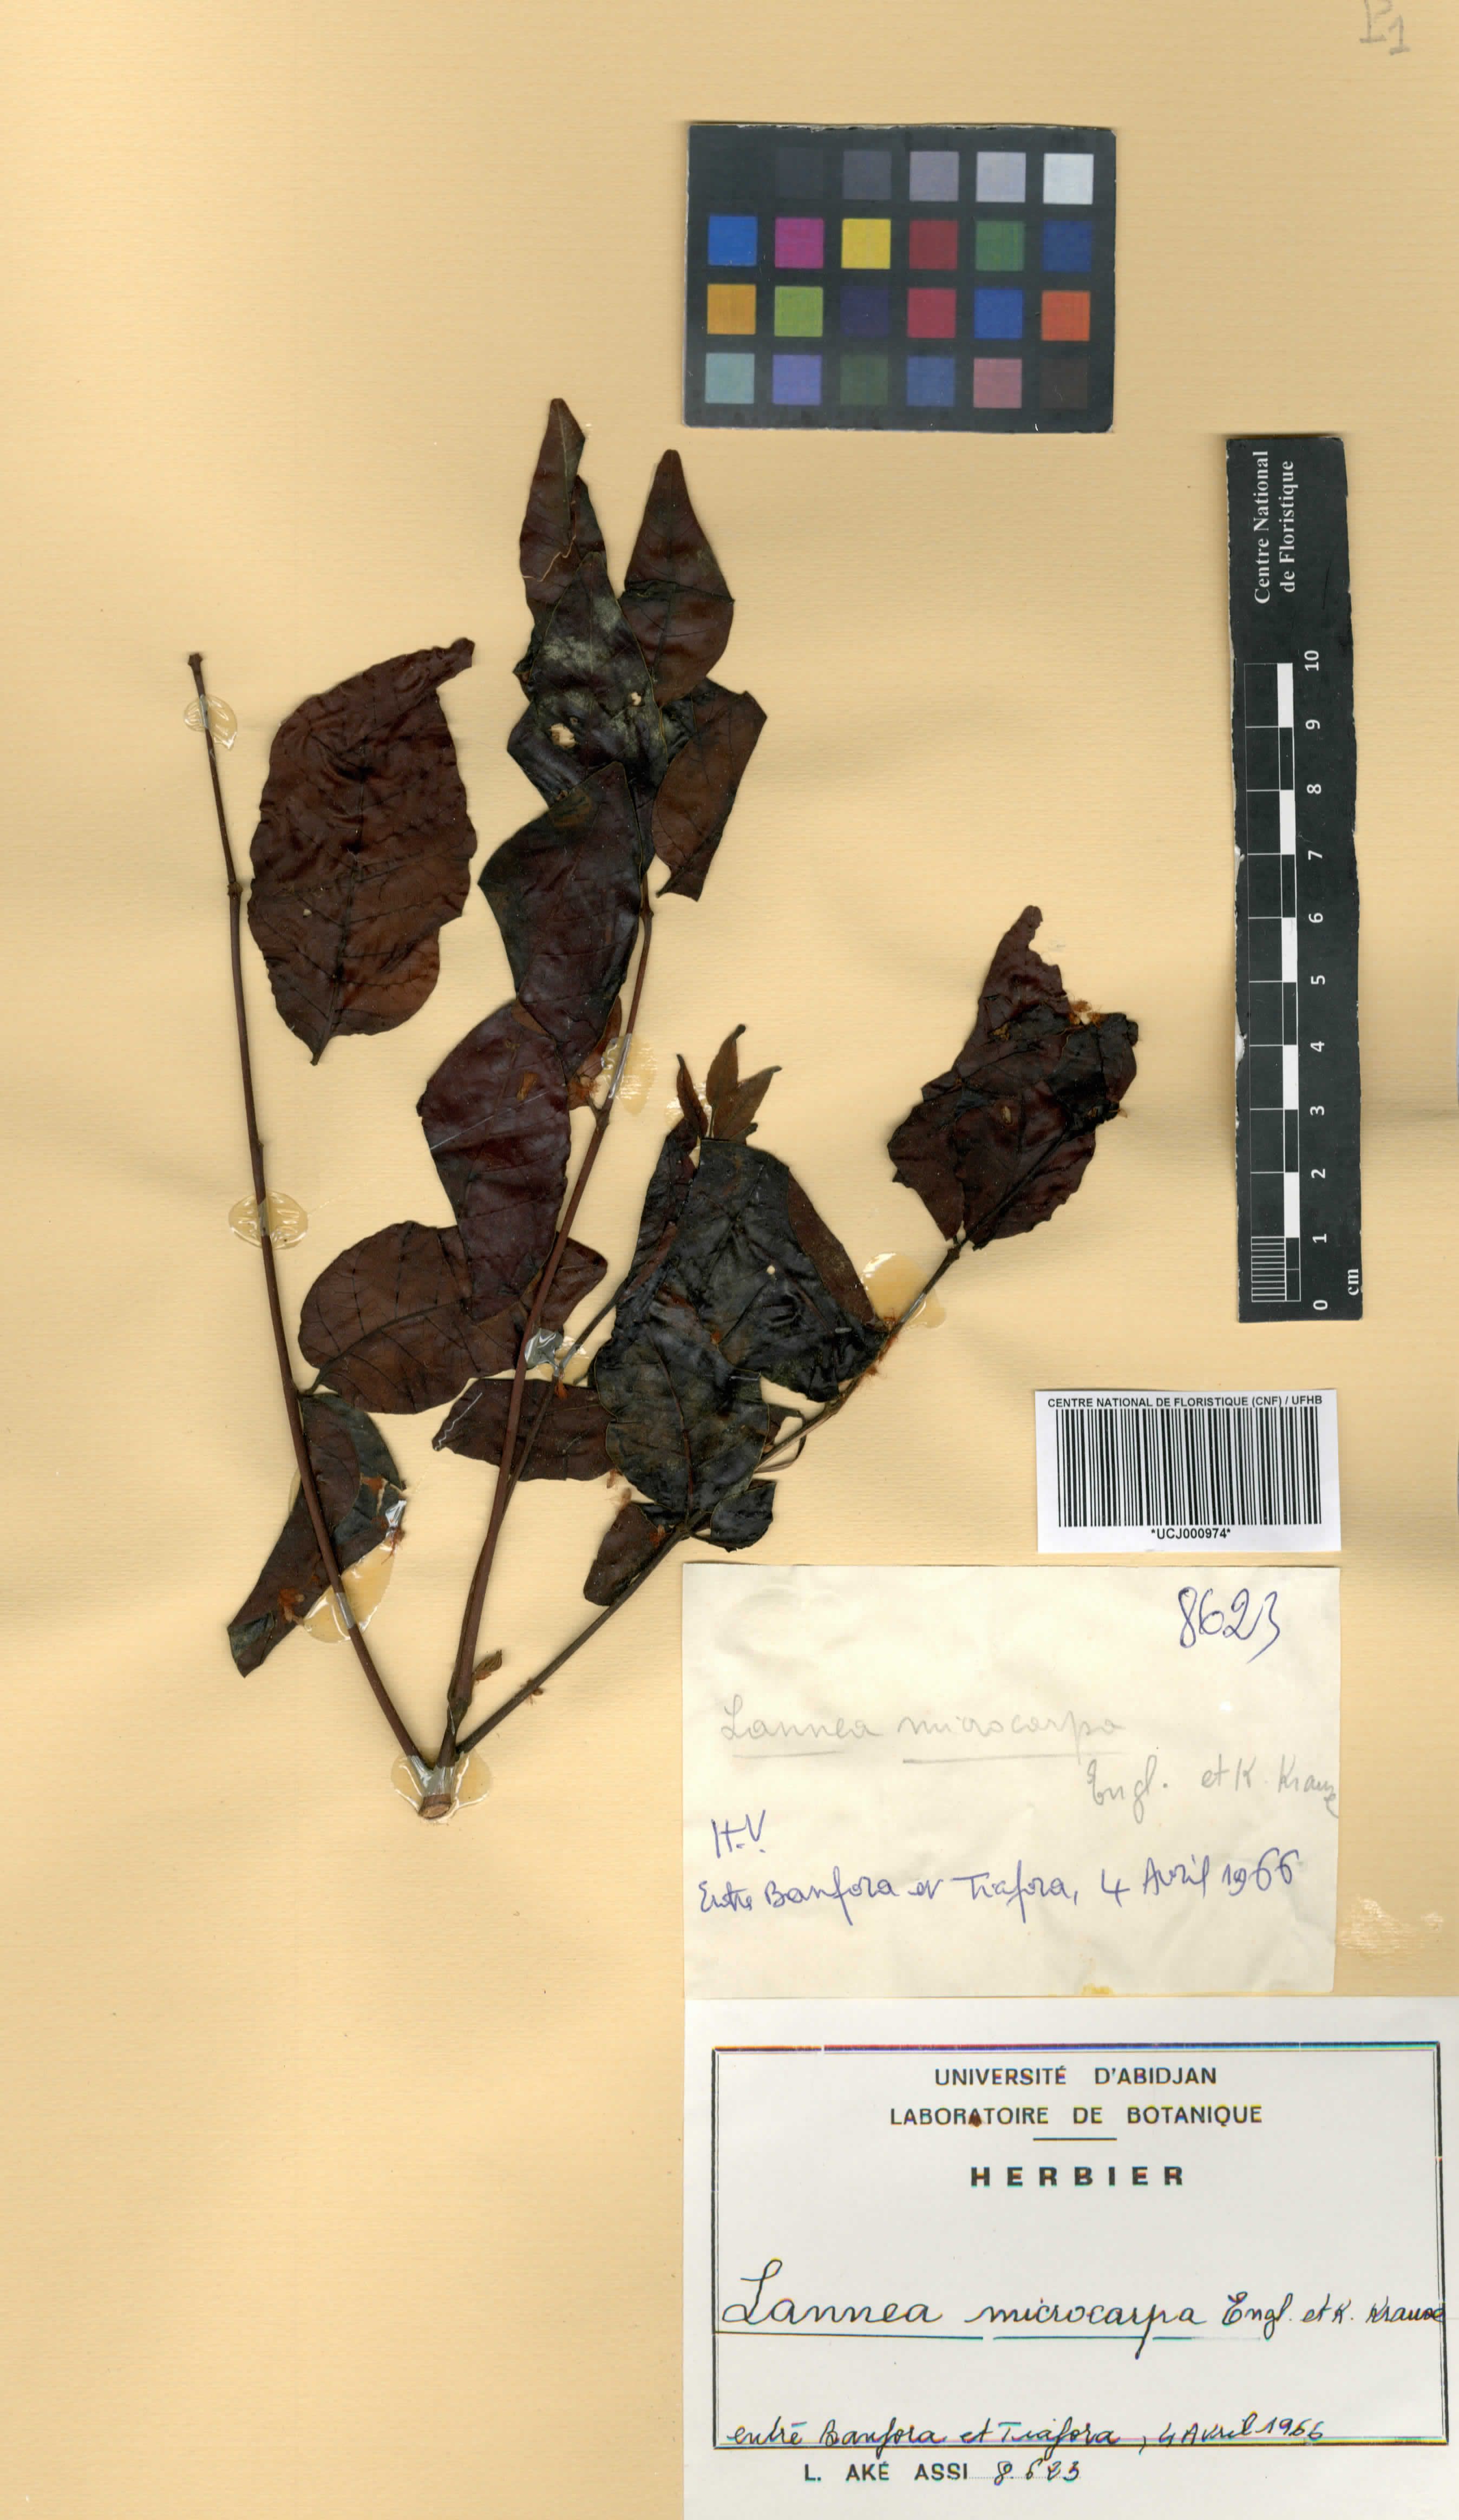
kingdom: Plantae
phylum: Tracheophyta
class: Magnoliopsida
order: Sapindales
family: Anacardiaceae
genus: Lannea
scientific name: Lannea microcarpa
